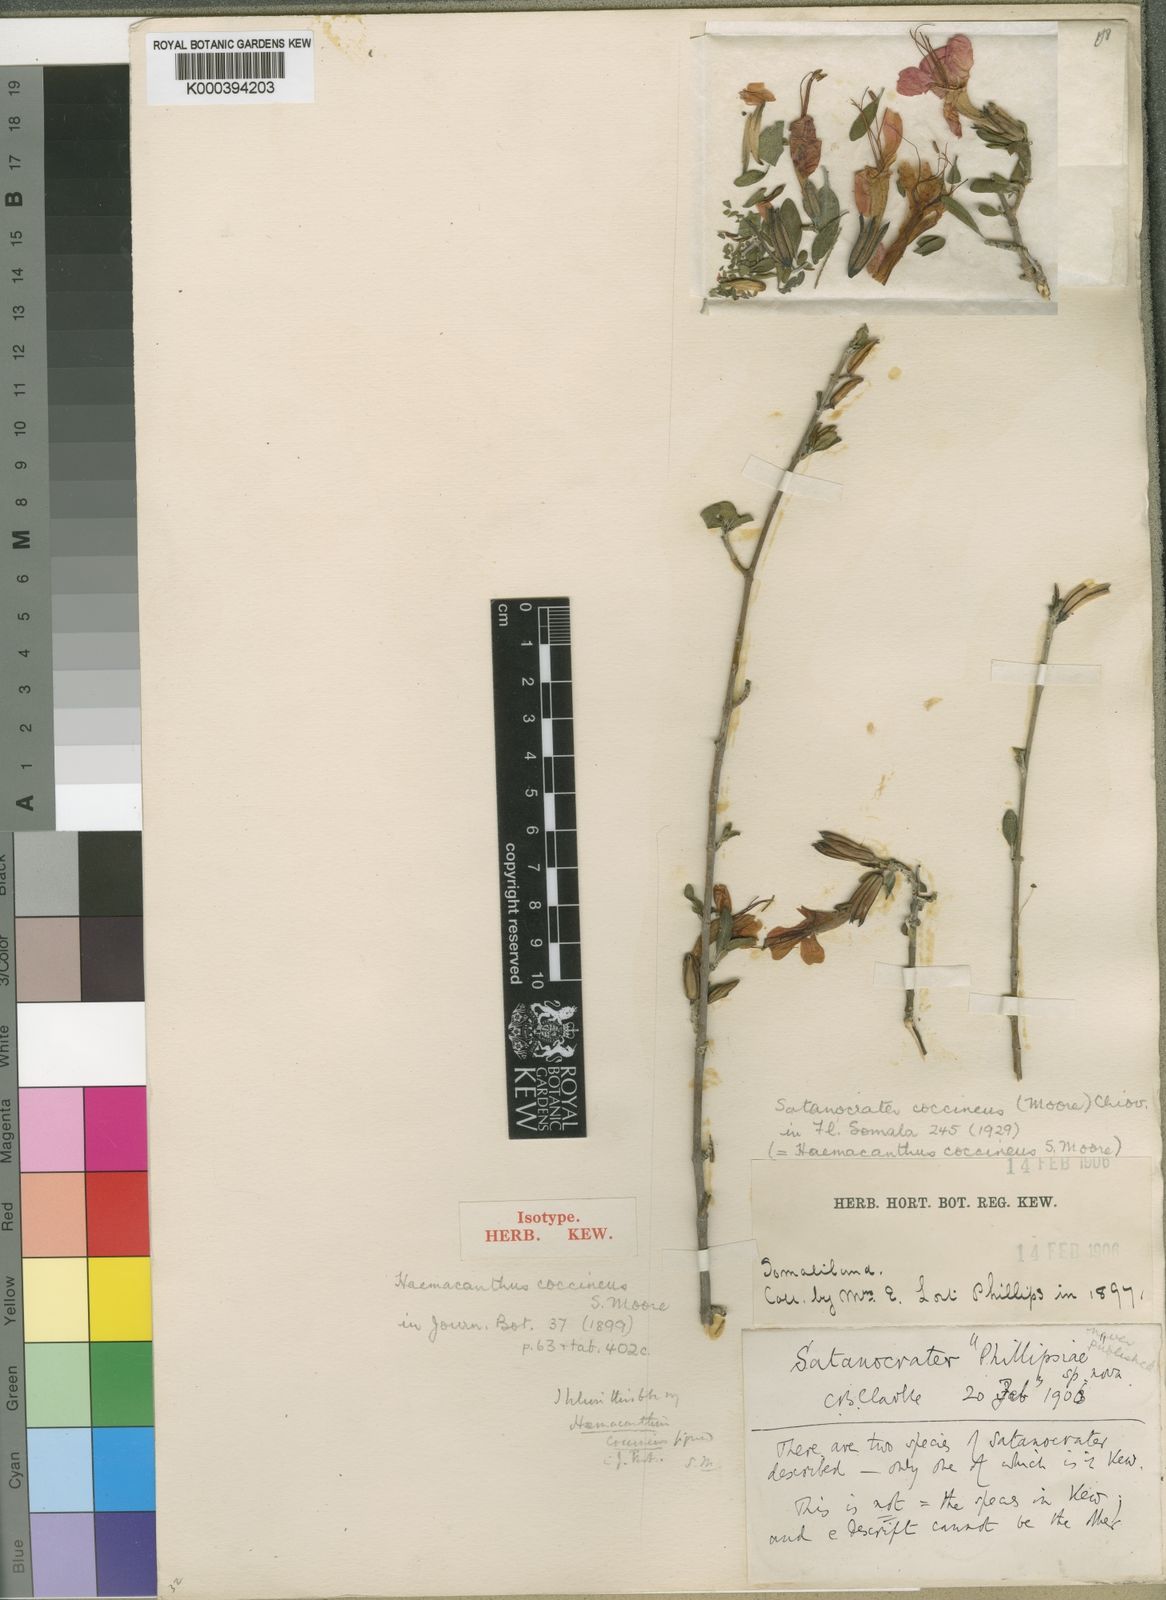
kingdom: Plantae
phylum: Tracheophyta
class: Magnoliopsida
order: Lamiales
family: Acanthaceae
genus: Satanocrater
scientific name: Satanocrater
